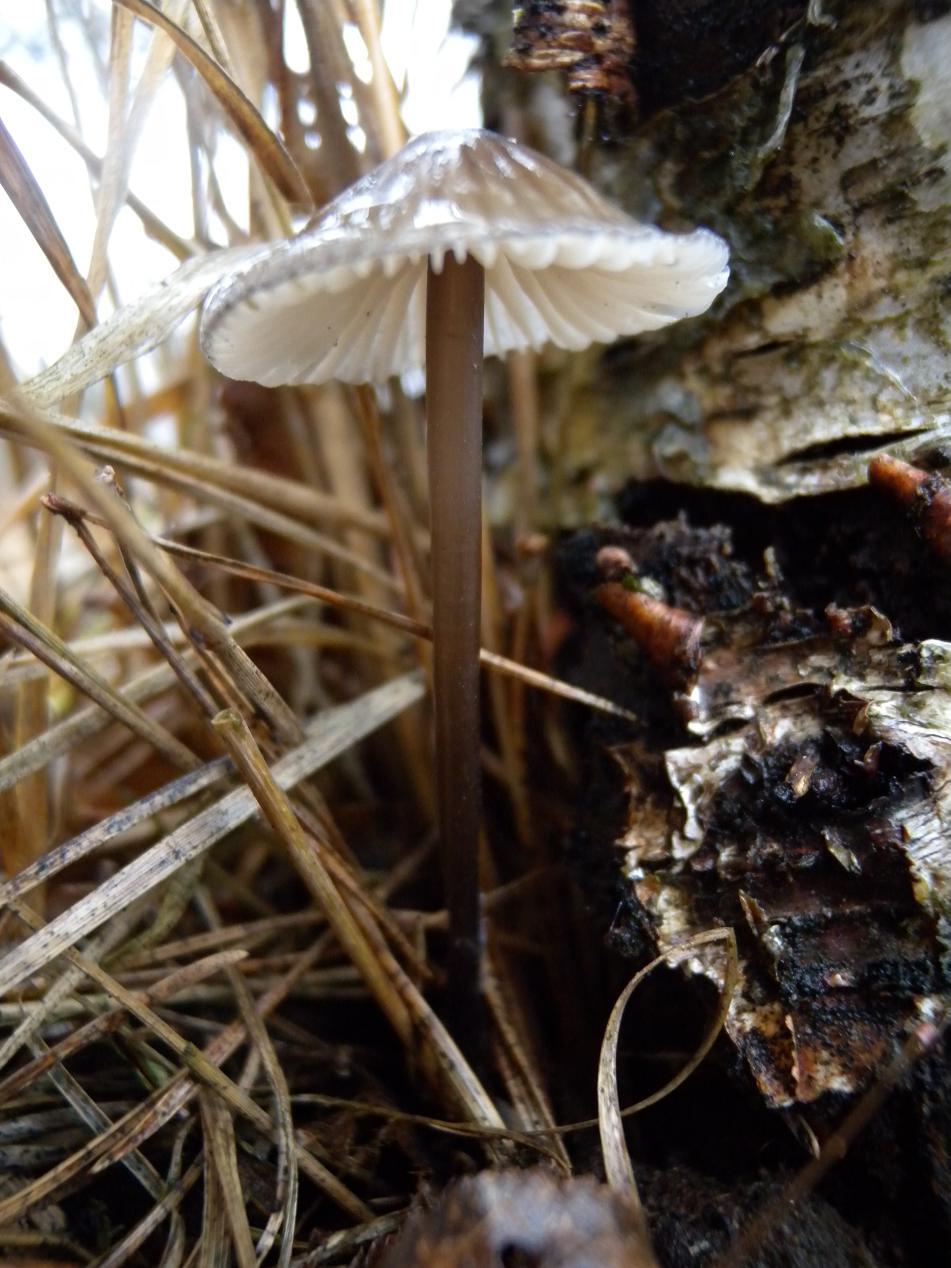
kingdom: Fungi
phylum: Basidiomycota
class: Agaricomycetes
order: Agaricales
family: Mycenaceae
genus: Mycena
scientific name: Mycena galopus
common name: hvidmælket huesvamp
